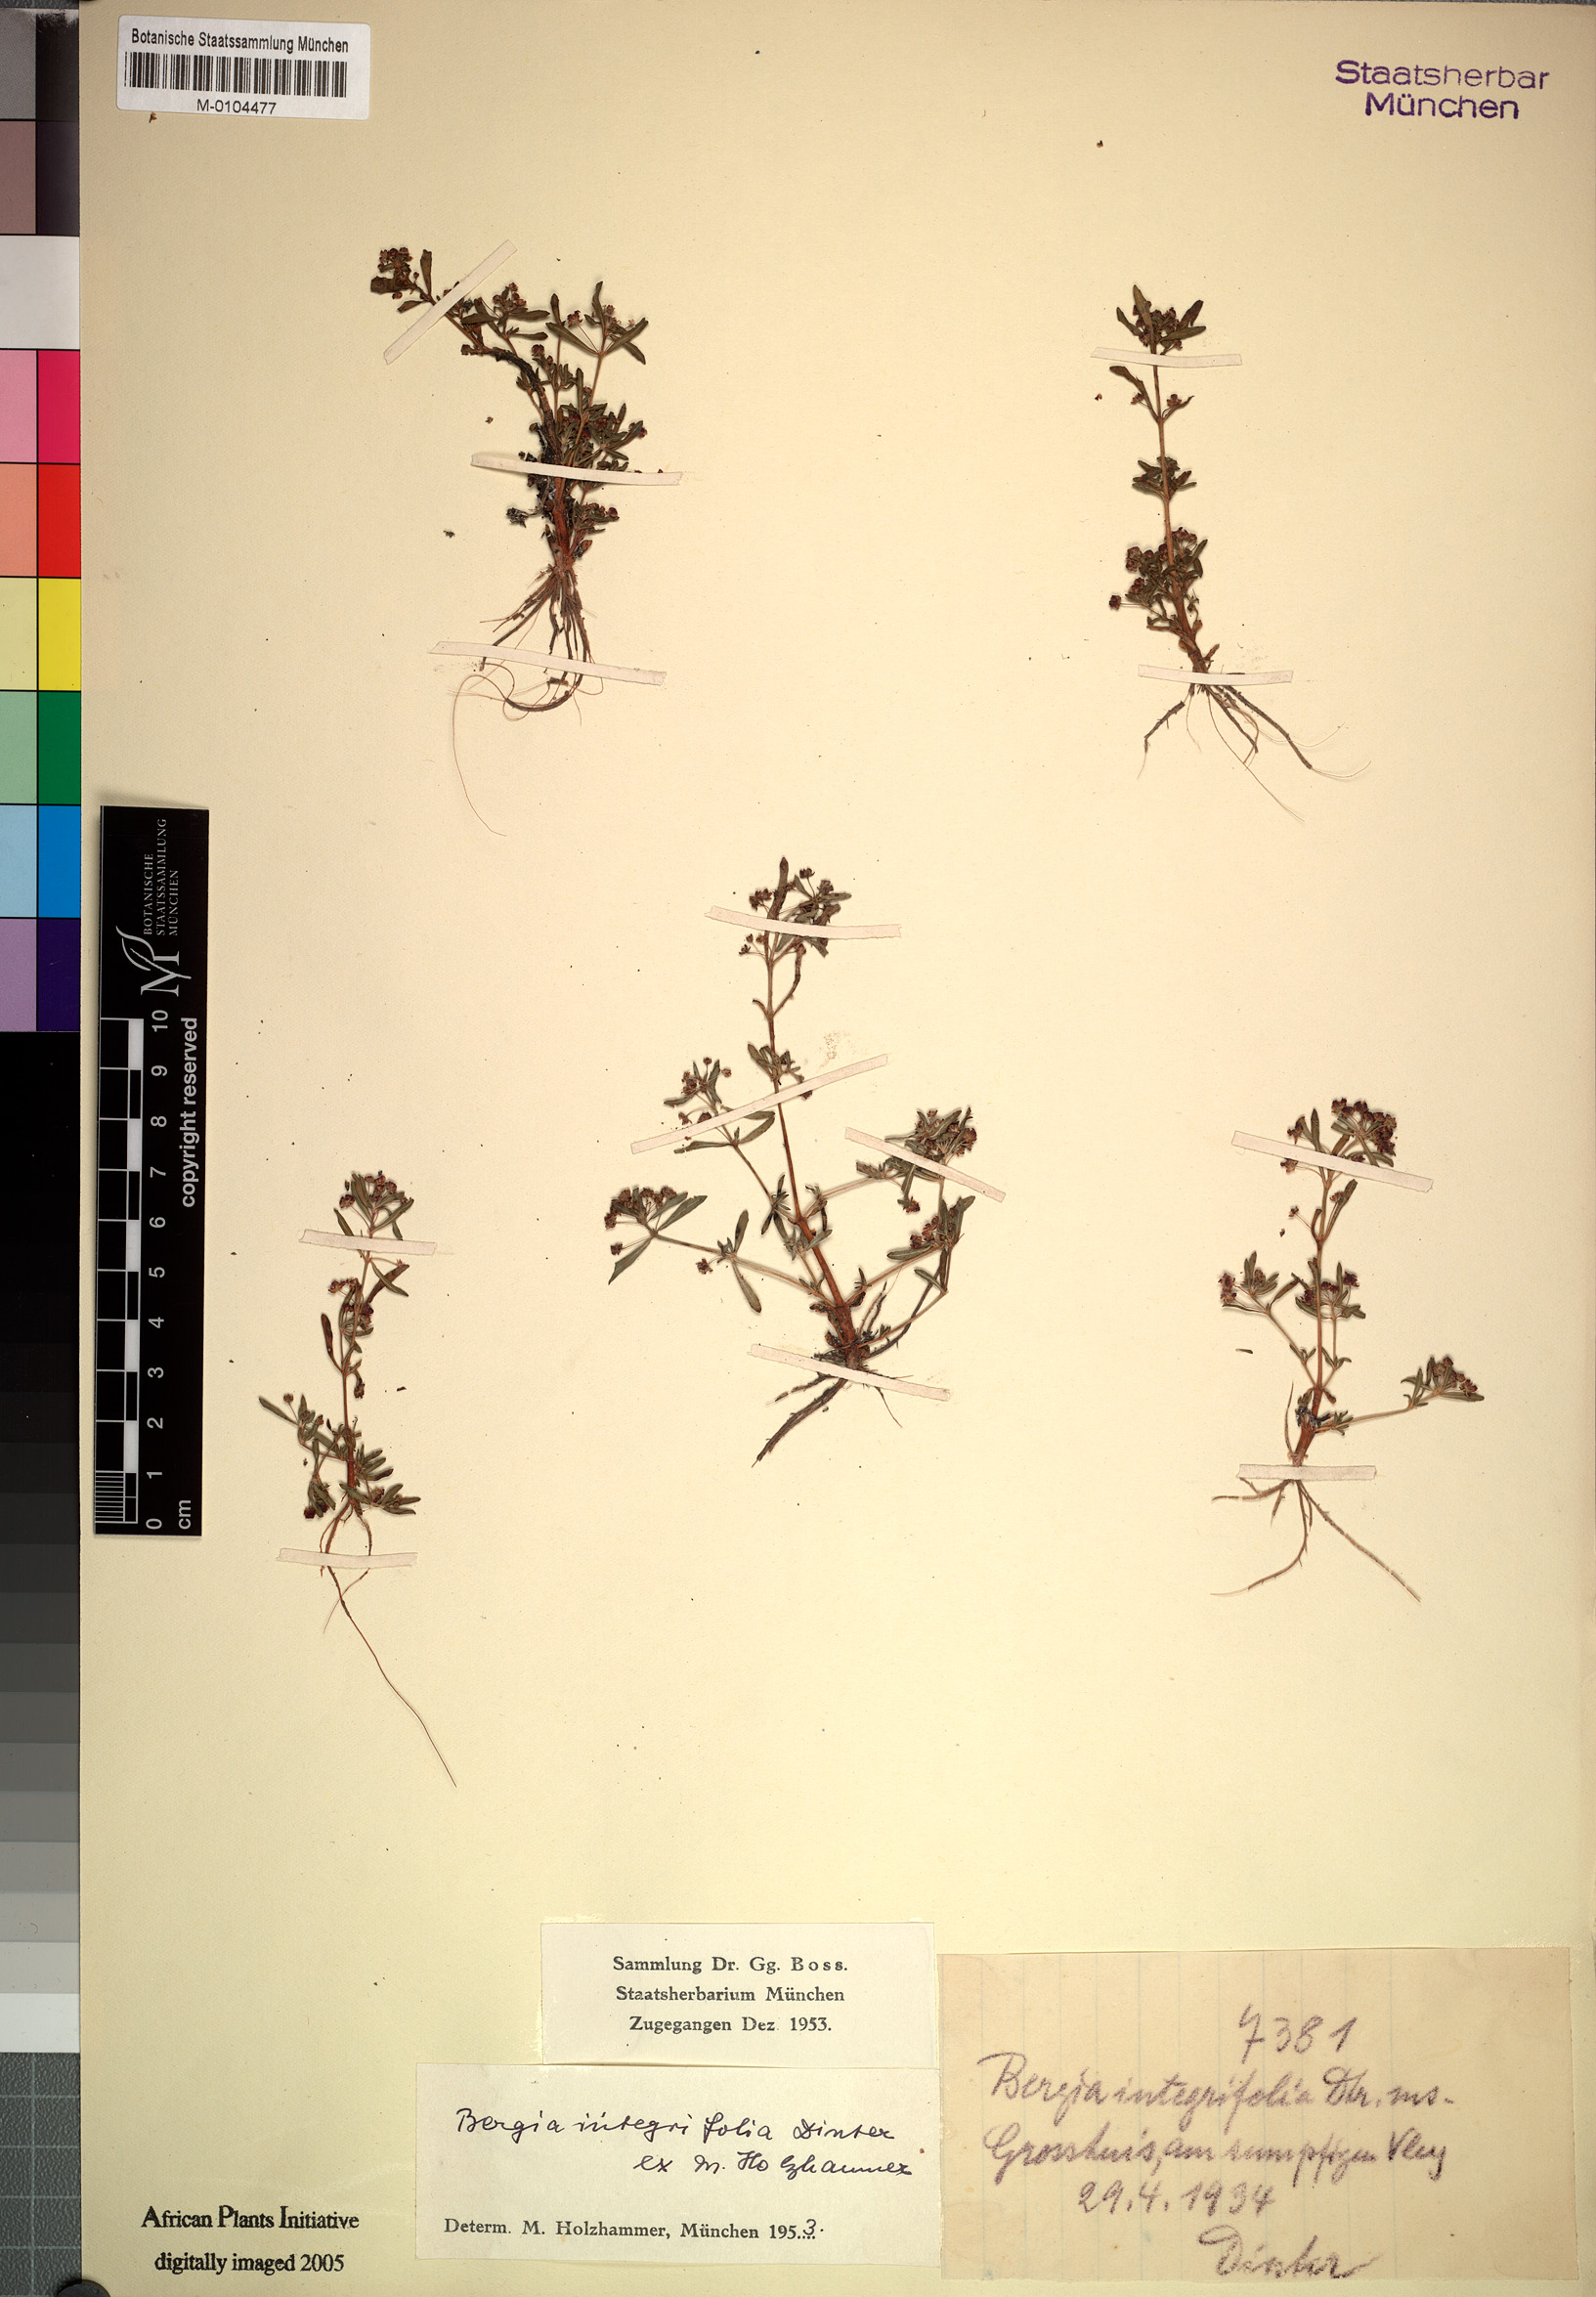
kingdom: Plantae
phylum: Tracheophyta
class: Magnoliopsida
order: Malpighiales
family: Elatinaceae
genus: Bergia
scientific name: Bergia polyantha
